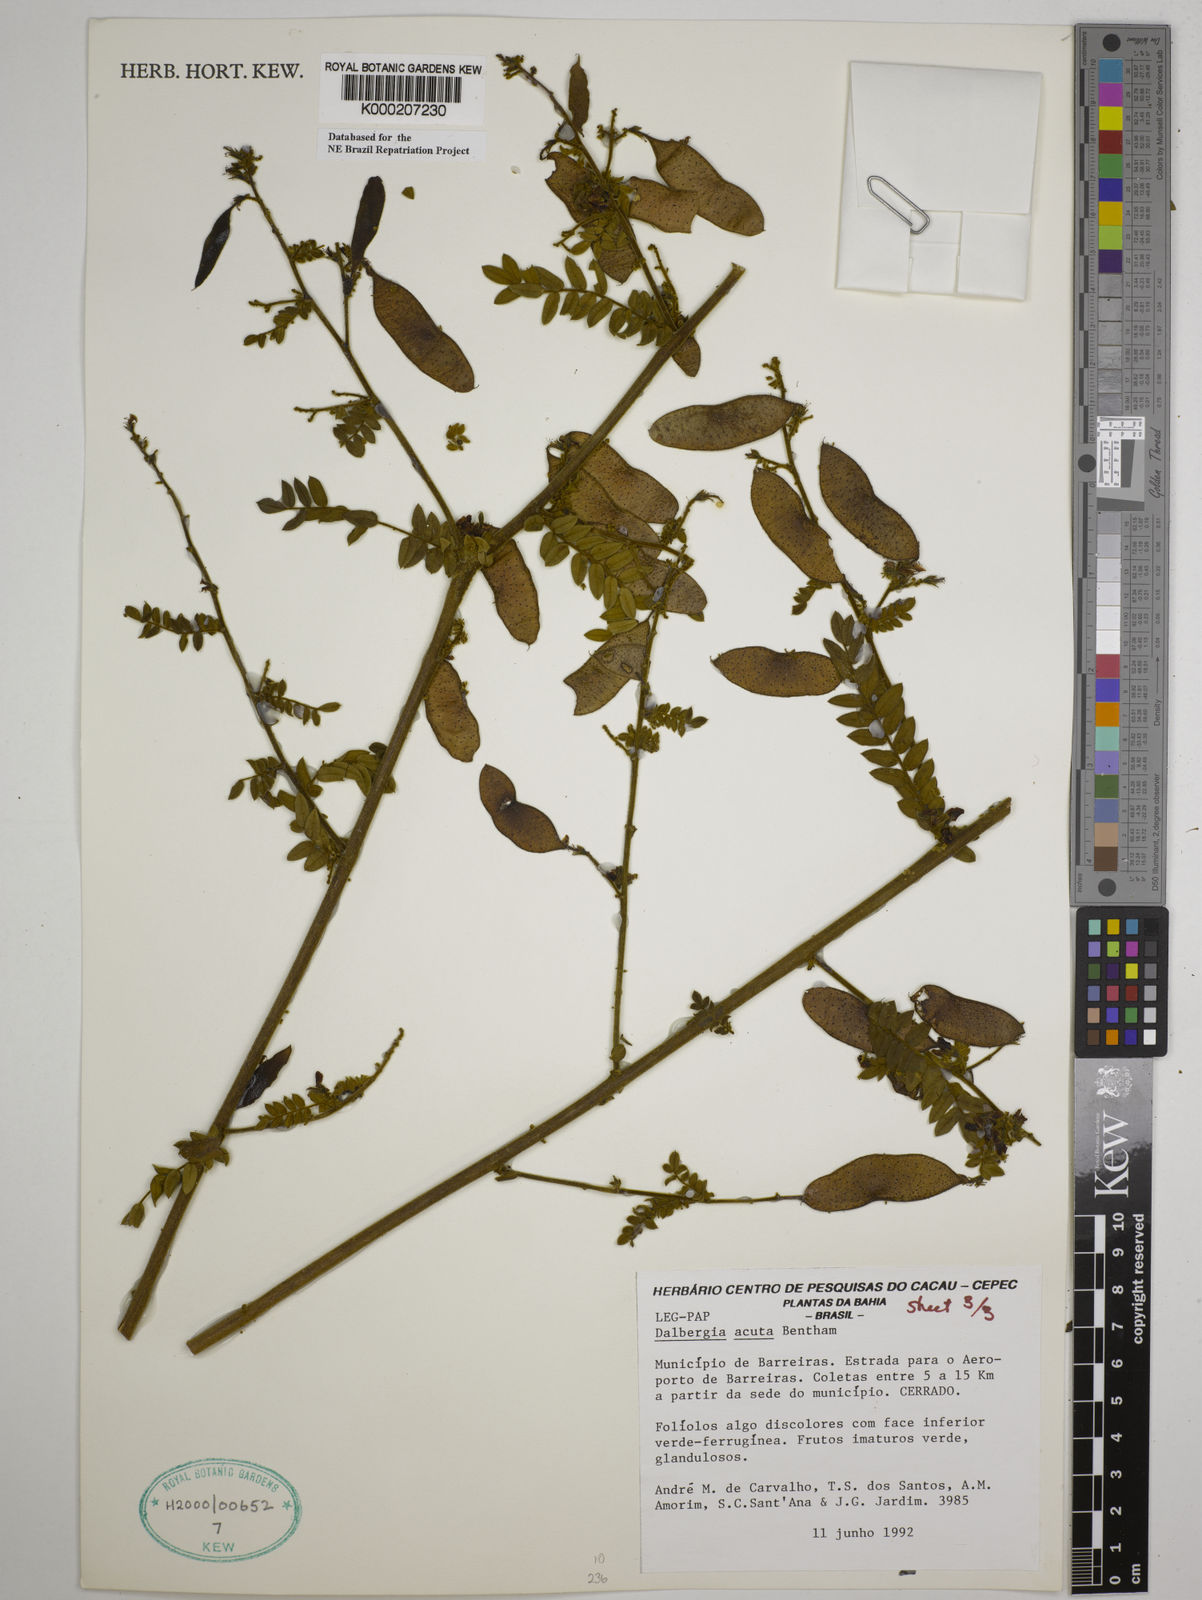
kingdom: Plantae
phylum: Tracheophyta
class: Magnoliopsida
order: Fabales
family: Fabaceae
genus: Dalbergia
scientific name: Dalbergia acuta
